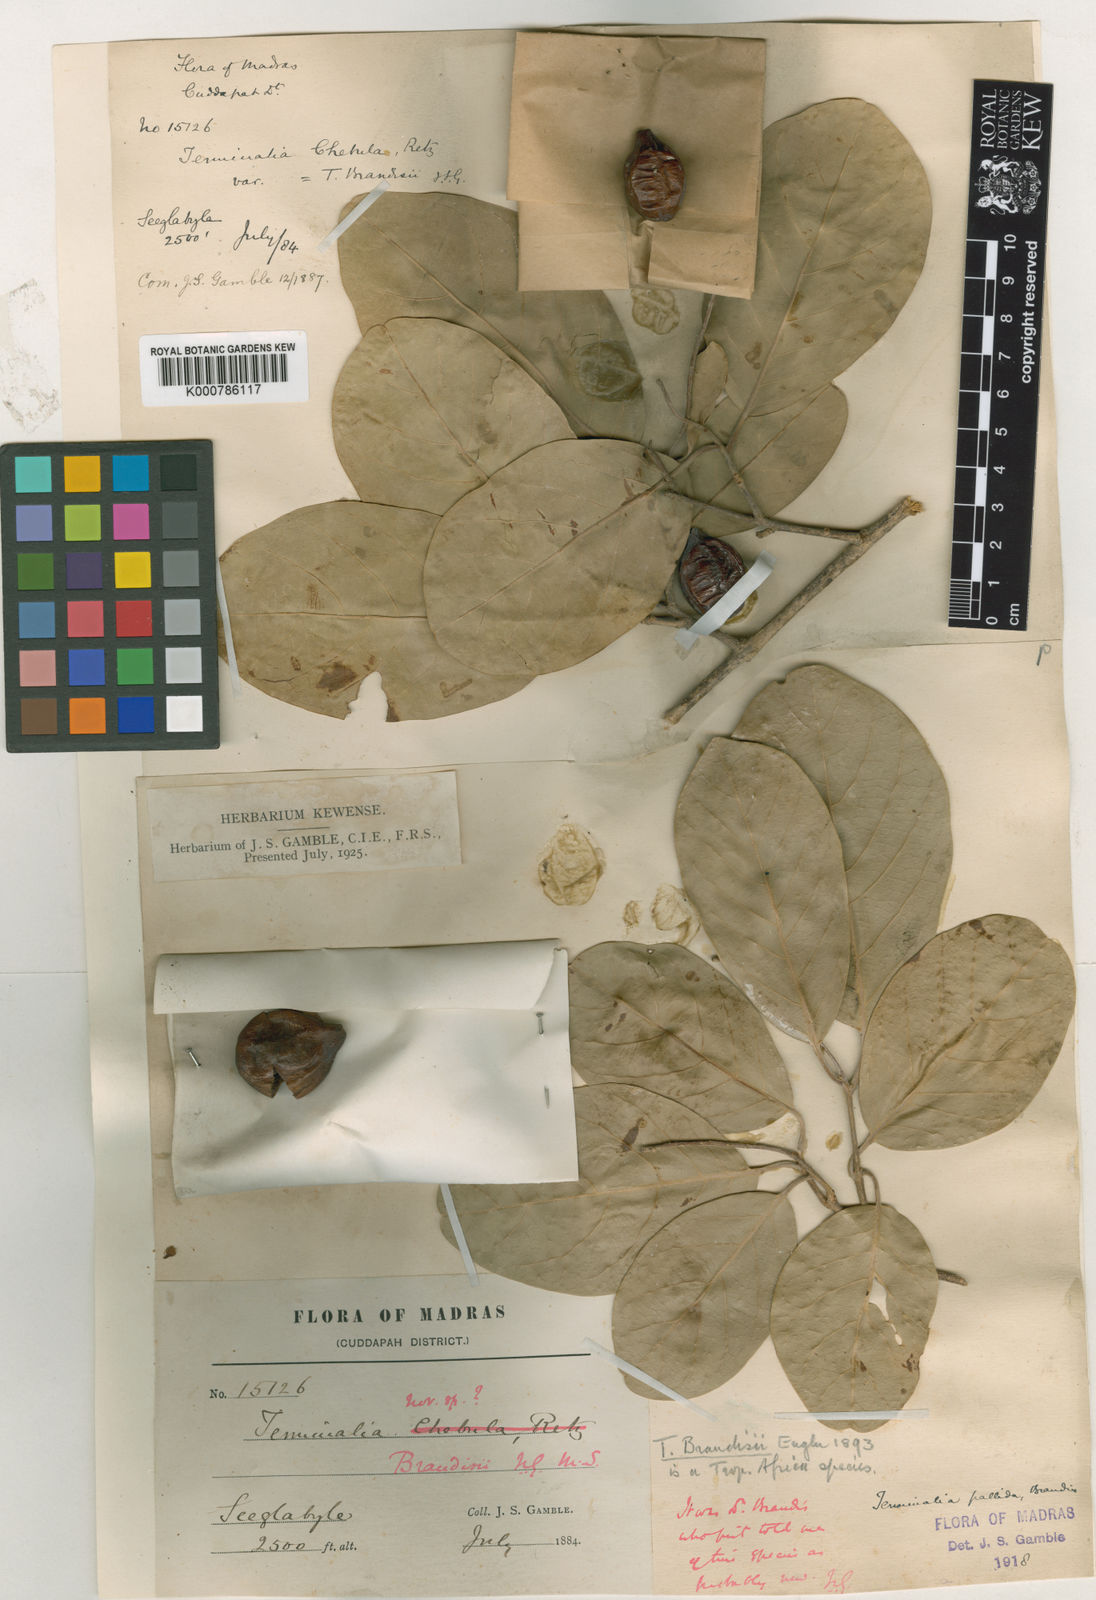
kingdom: Plantae
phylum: Tracheophyta
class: Magnoliopsida
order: Myrtales
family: Combretaceae
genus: Terminalia
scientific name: Terminalia pallida
